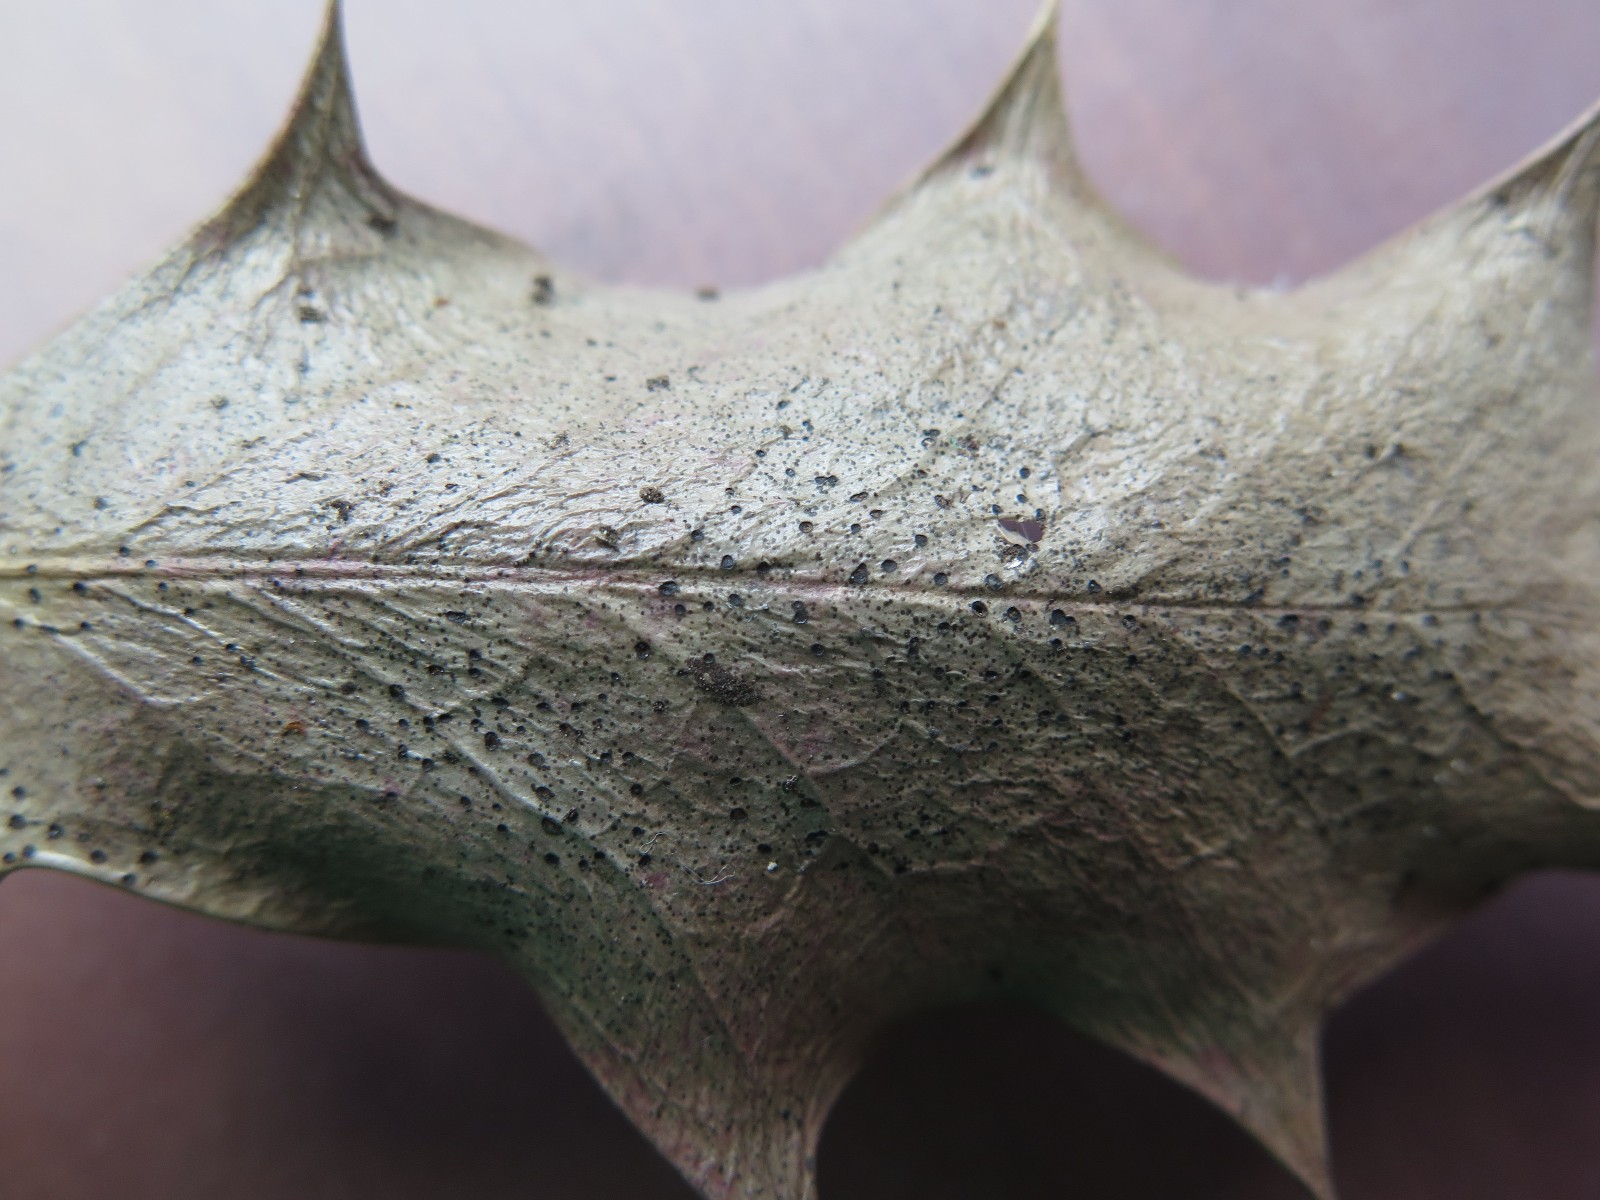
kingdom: Fungi
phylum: Ascomycota
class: Leotiomycetes
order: Helotiales
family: Cenangiaceae
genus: Trochila
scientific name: Trochila ilicina
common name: kristtorn-lågskive
